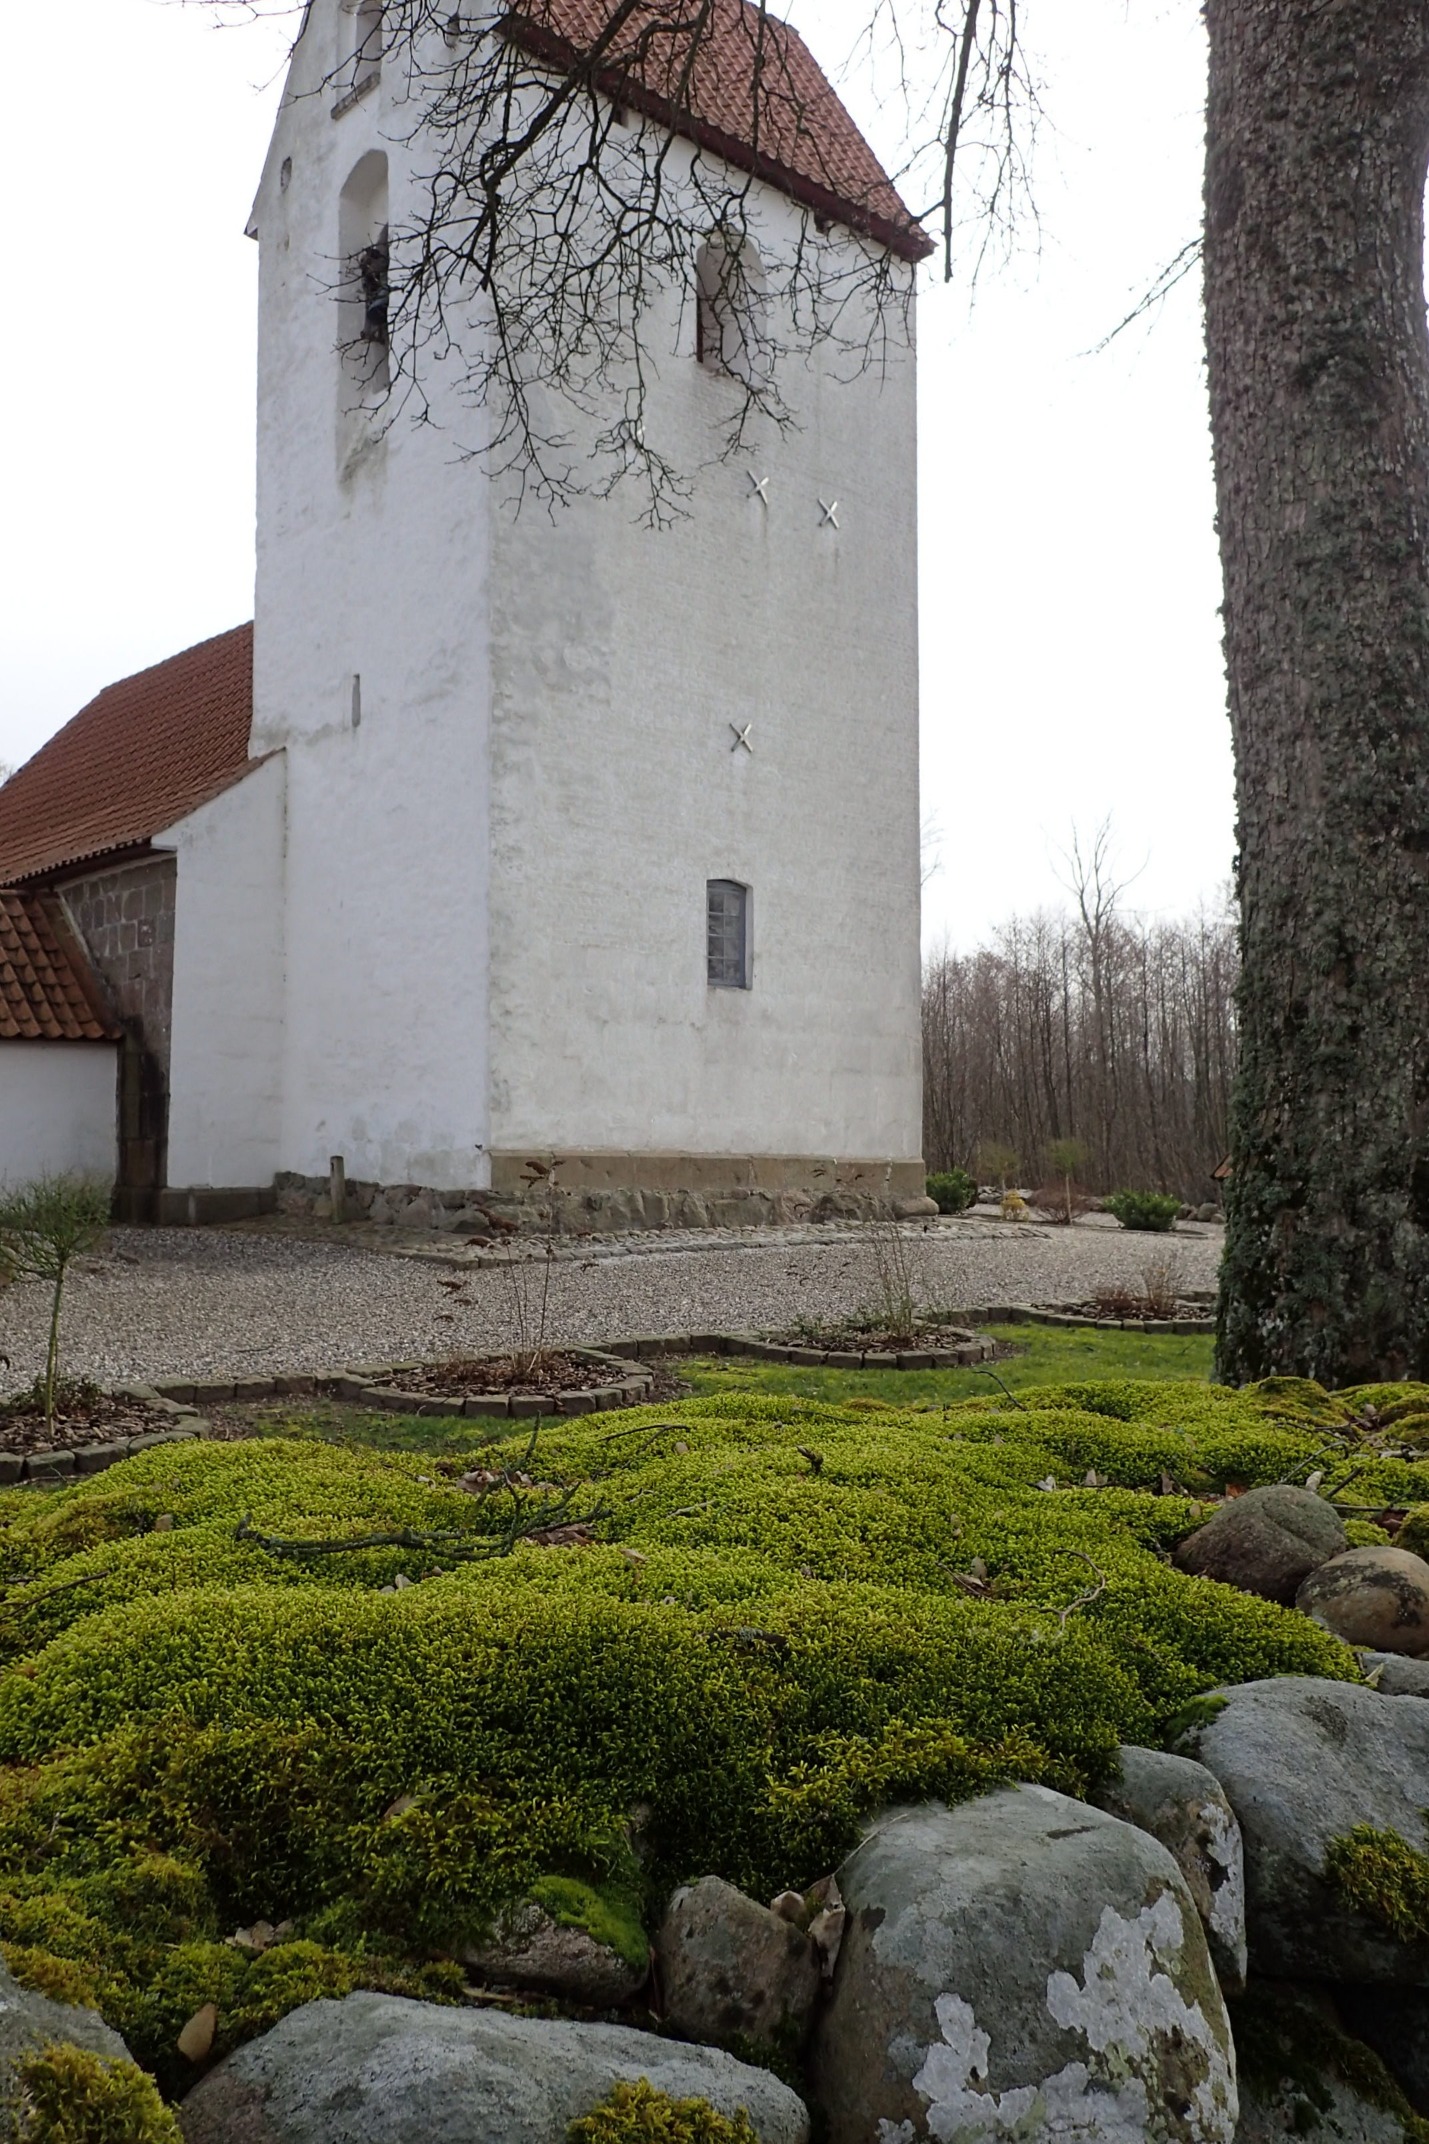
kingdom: Plantae
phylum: Bryophyta
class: Bryopsida
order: Hypnales
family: Antitrichiaceae
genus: Antitrichia
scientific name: Antitrichia curtipendula
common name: Åben krogtand
